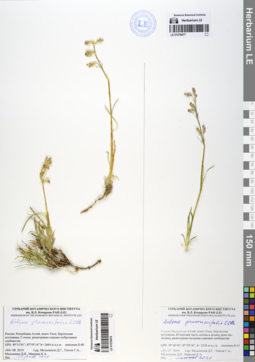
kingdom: Plantae
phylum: Tracheophyta
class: Magnoliopsida
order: Caryophyllales
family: Caryophyllaceae
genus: Silene
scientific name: Silene graminifolia
